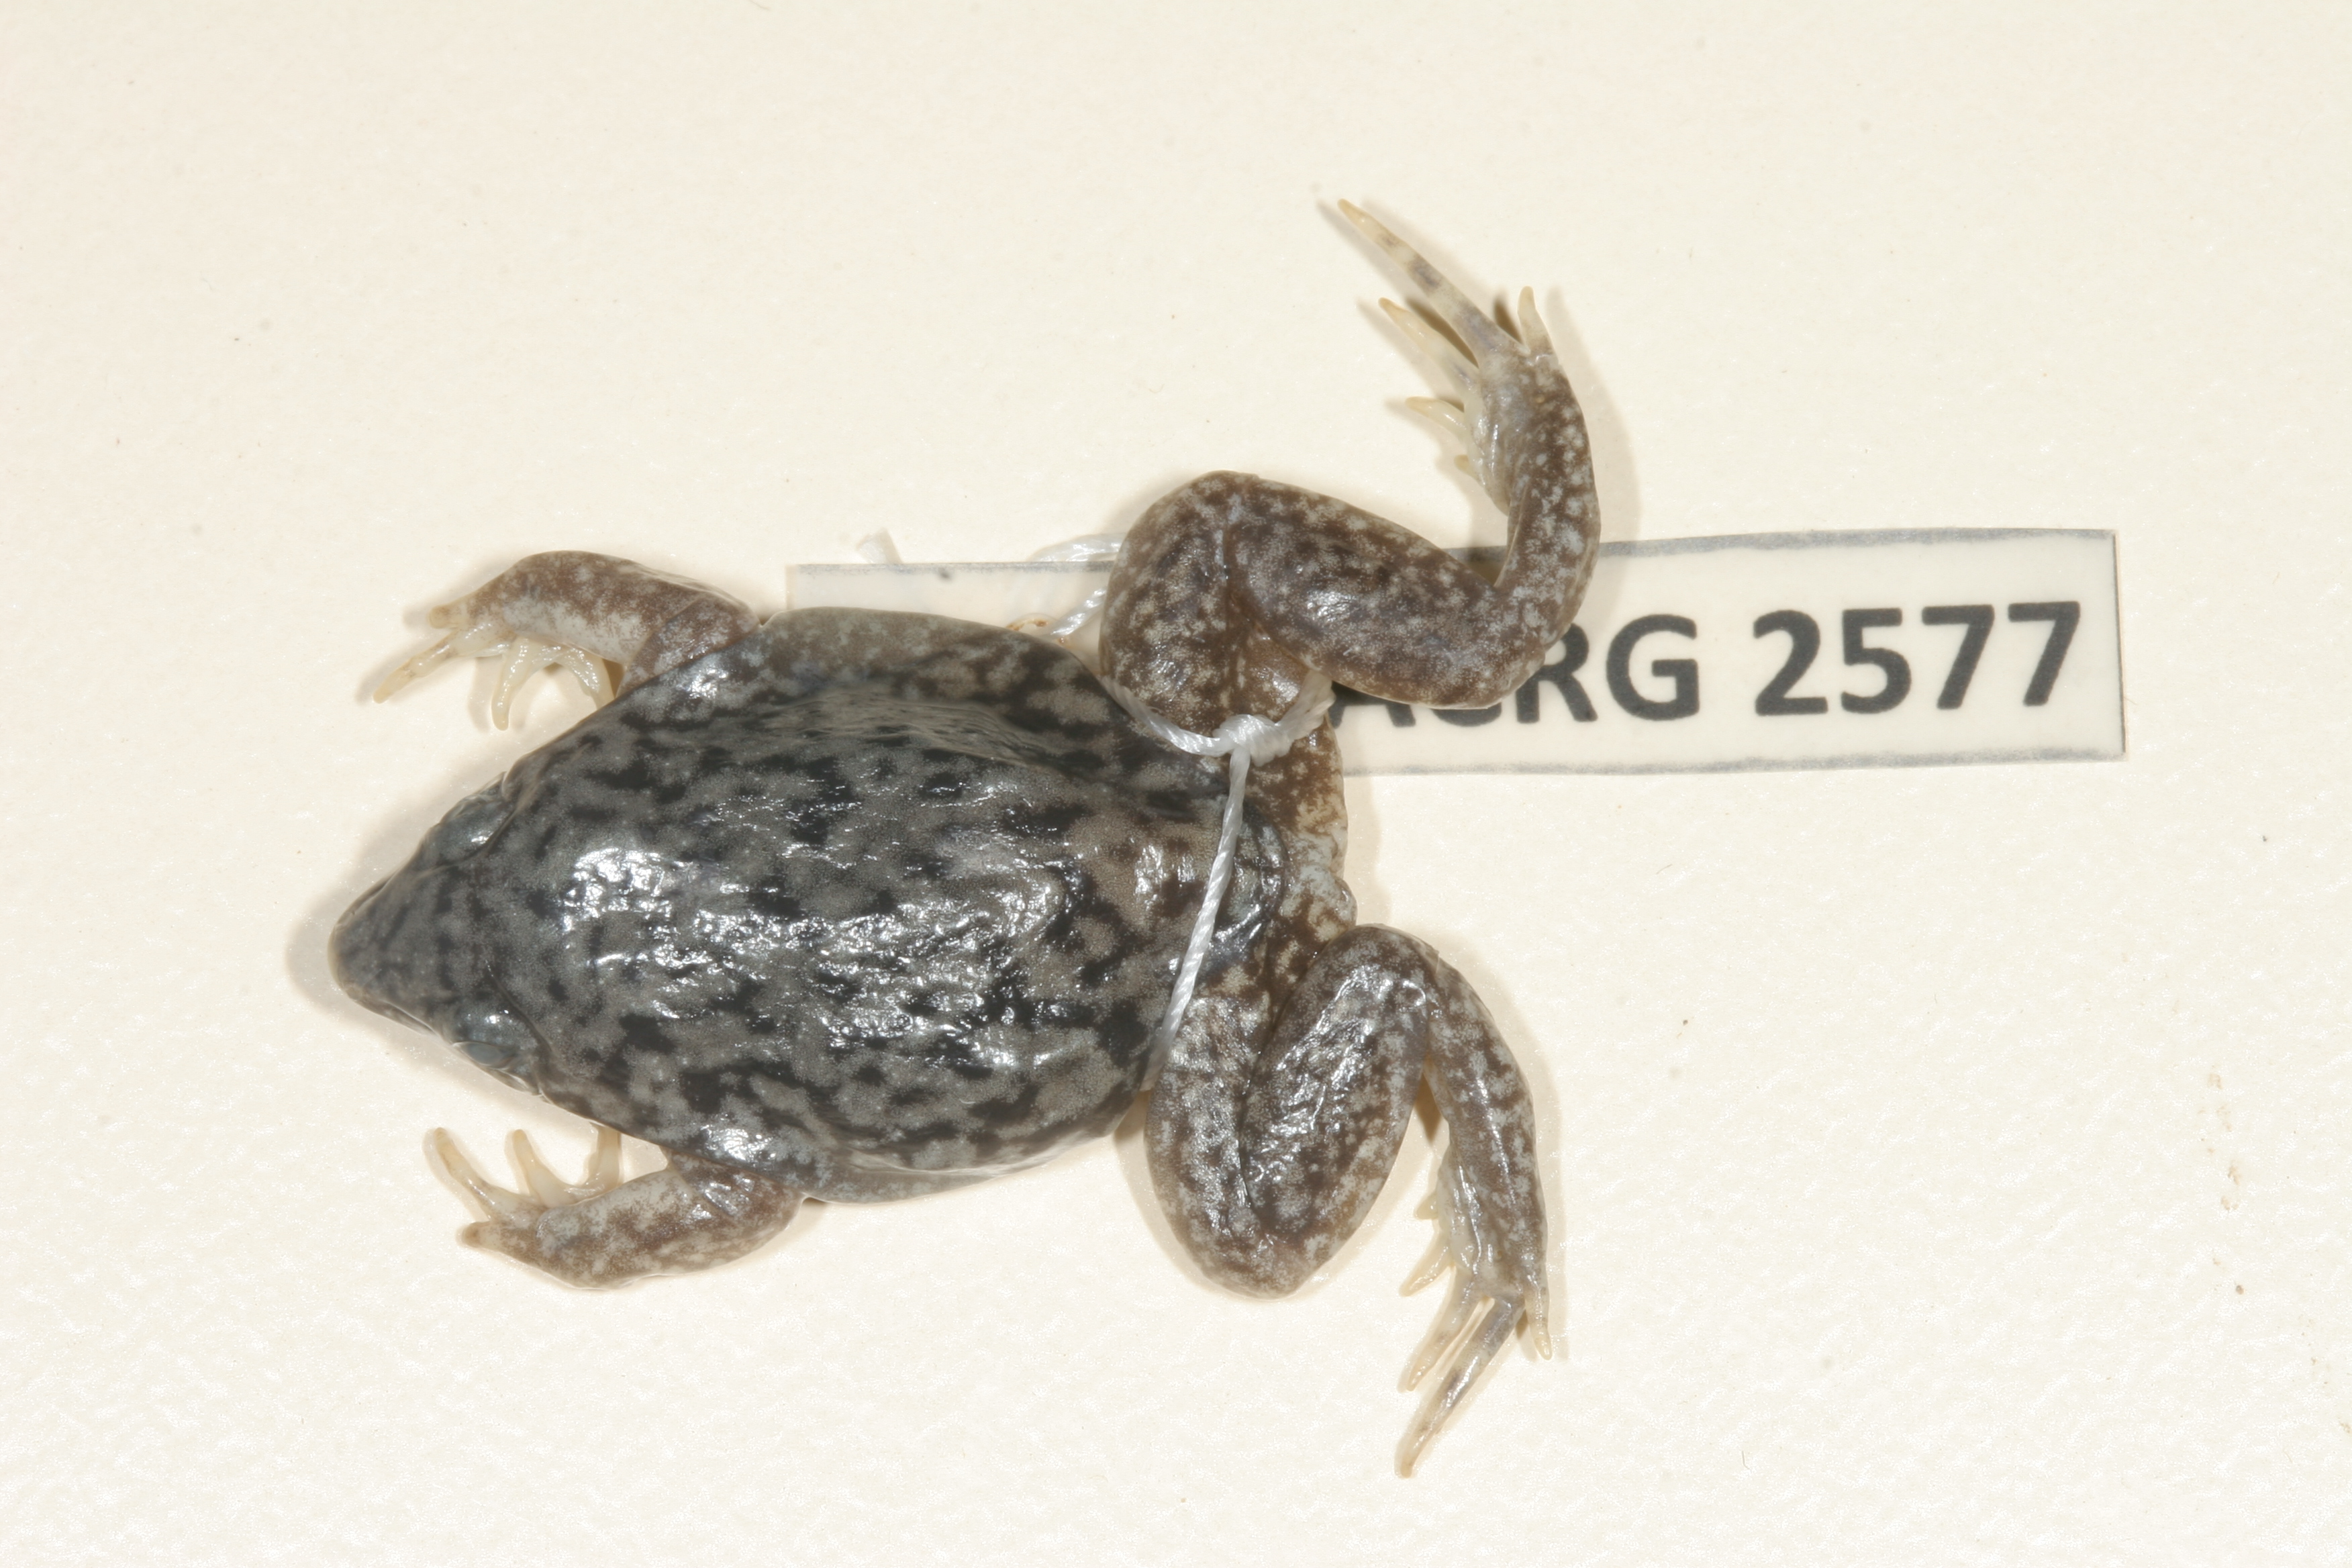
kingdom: Animalia
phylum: Chordata
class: Amphibia
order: Anura
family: Hemisotidae
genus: Hemisus
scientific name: Hemisus marmoratus
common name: Mottled shovel-nosed frog
